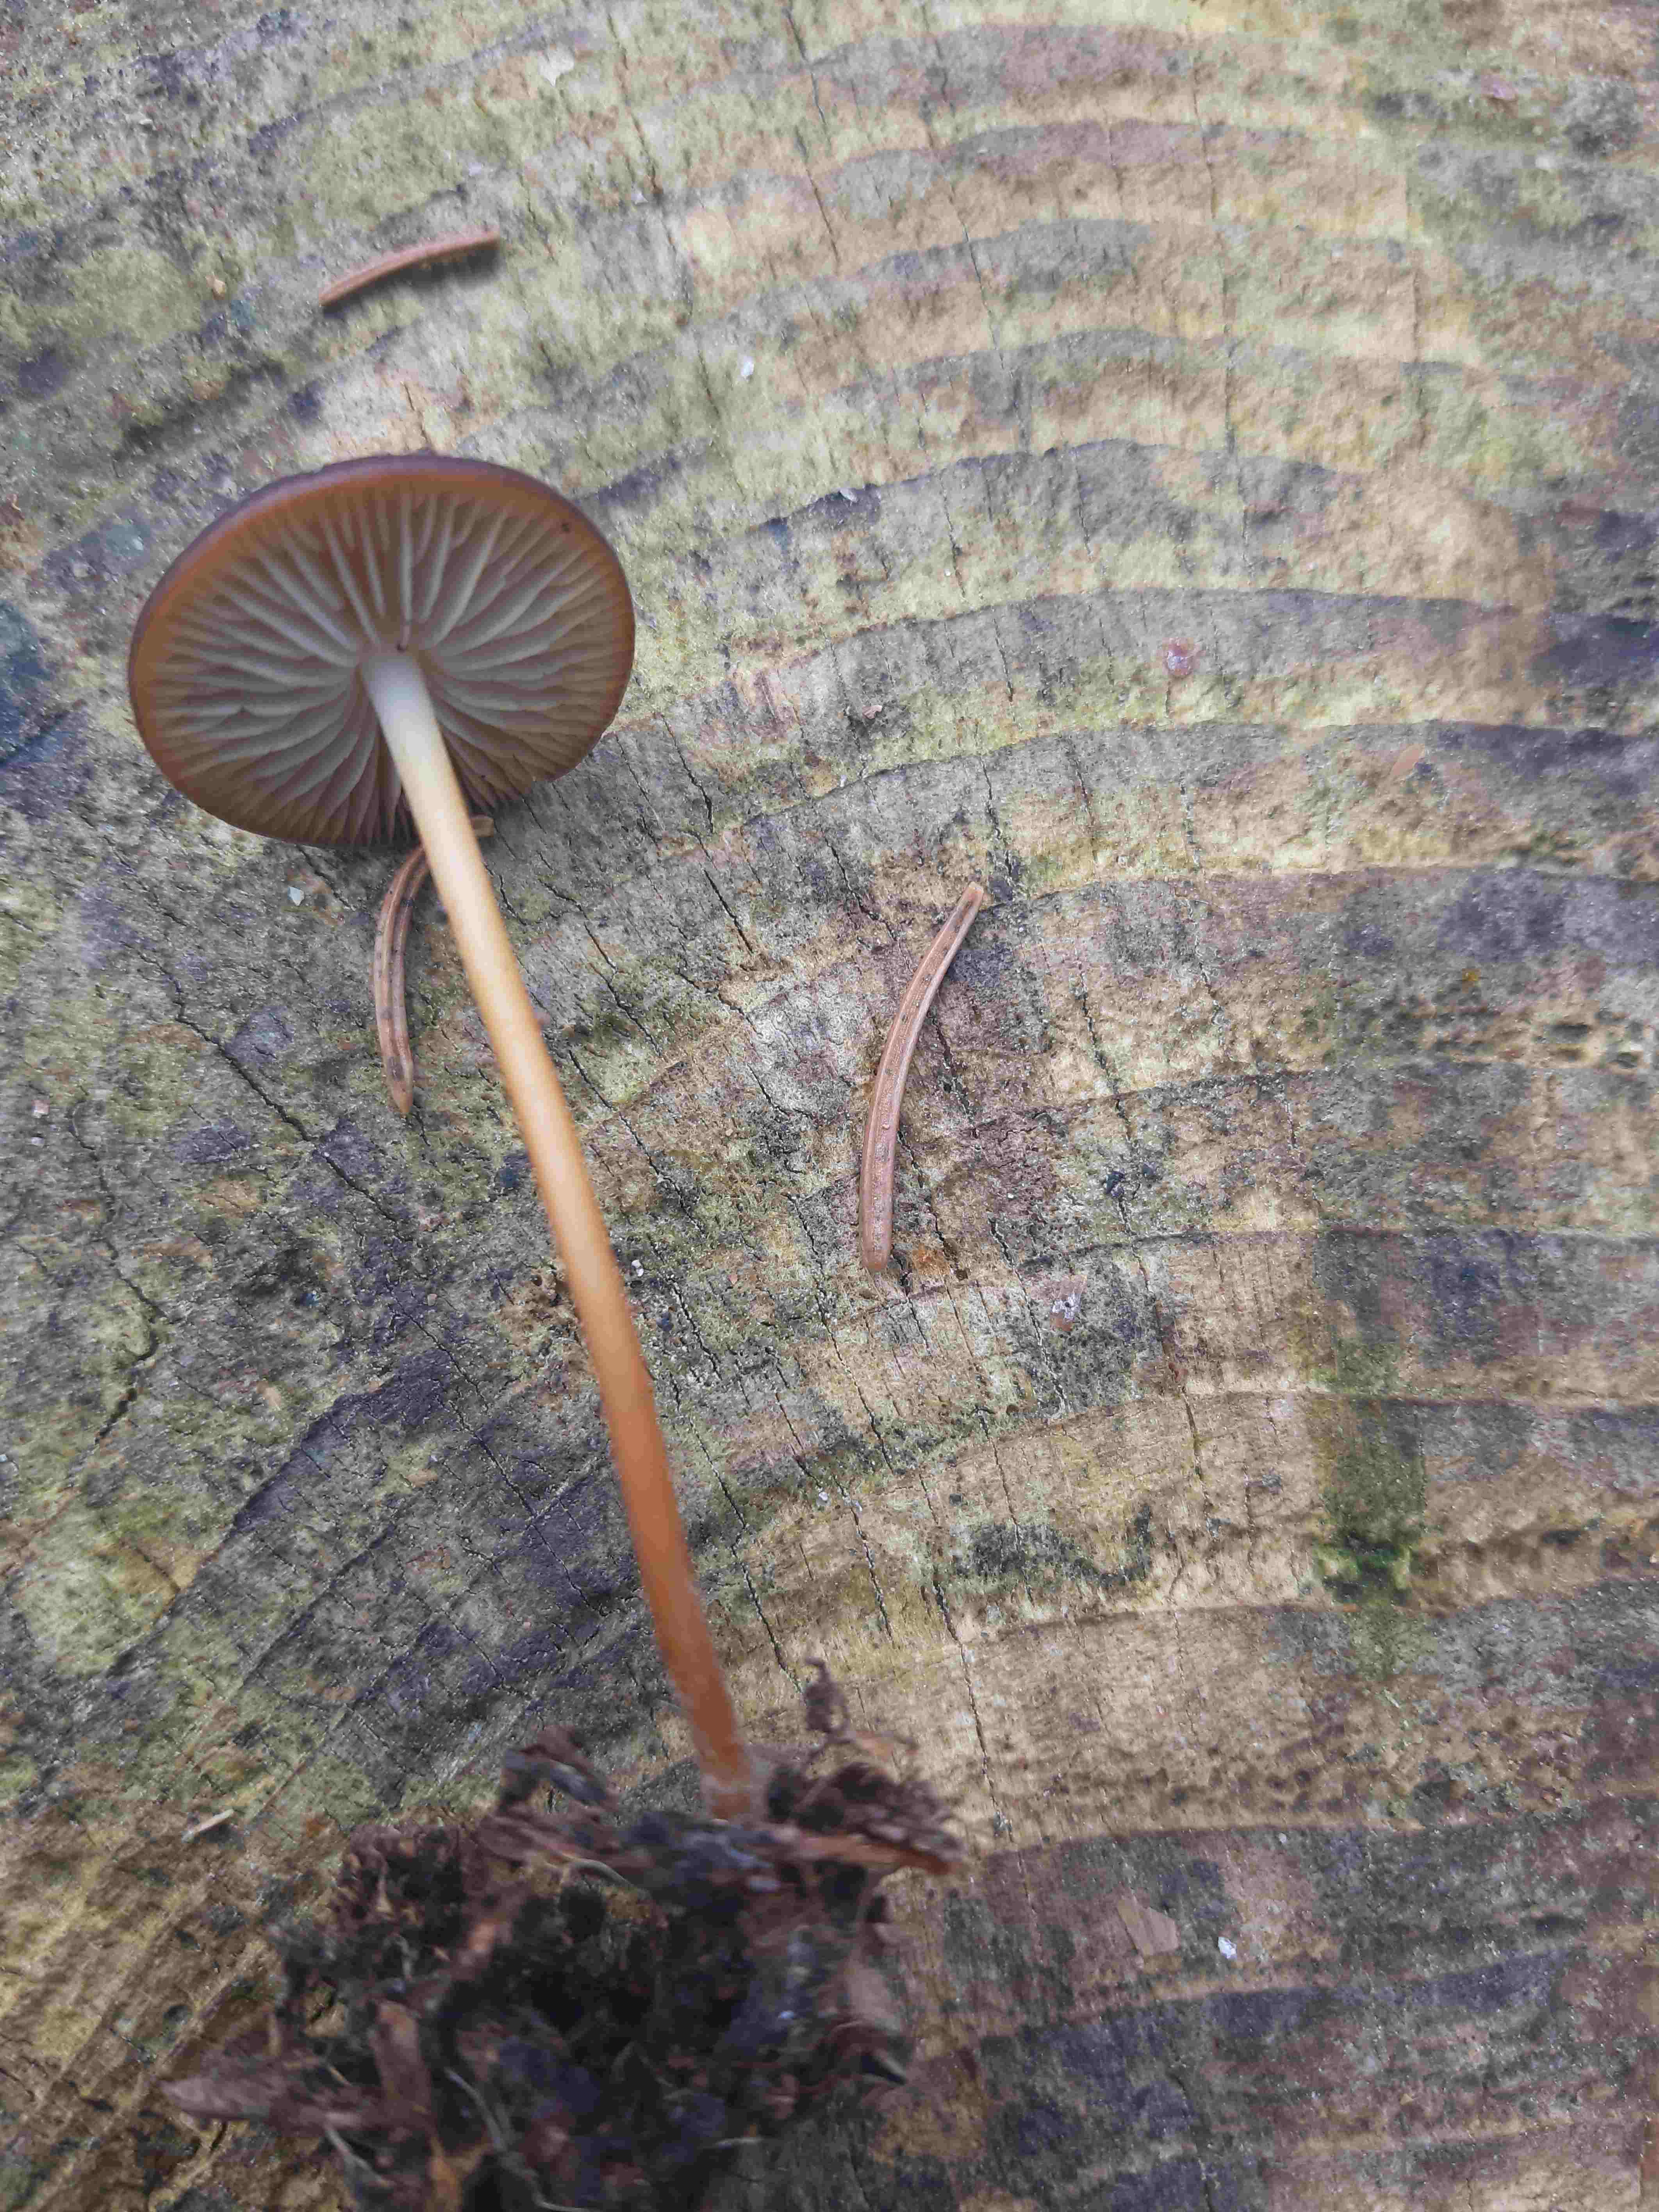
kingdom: Fungi
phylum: Basidiomycota
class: Agaricomycetes
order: Agaricales
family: Physalacriaceae
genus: Strobilurus
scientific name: Strobilurus
